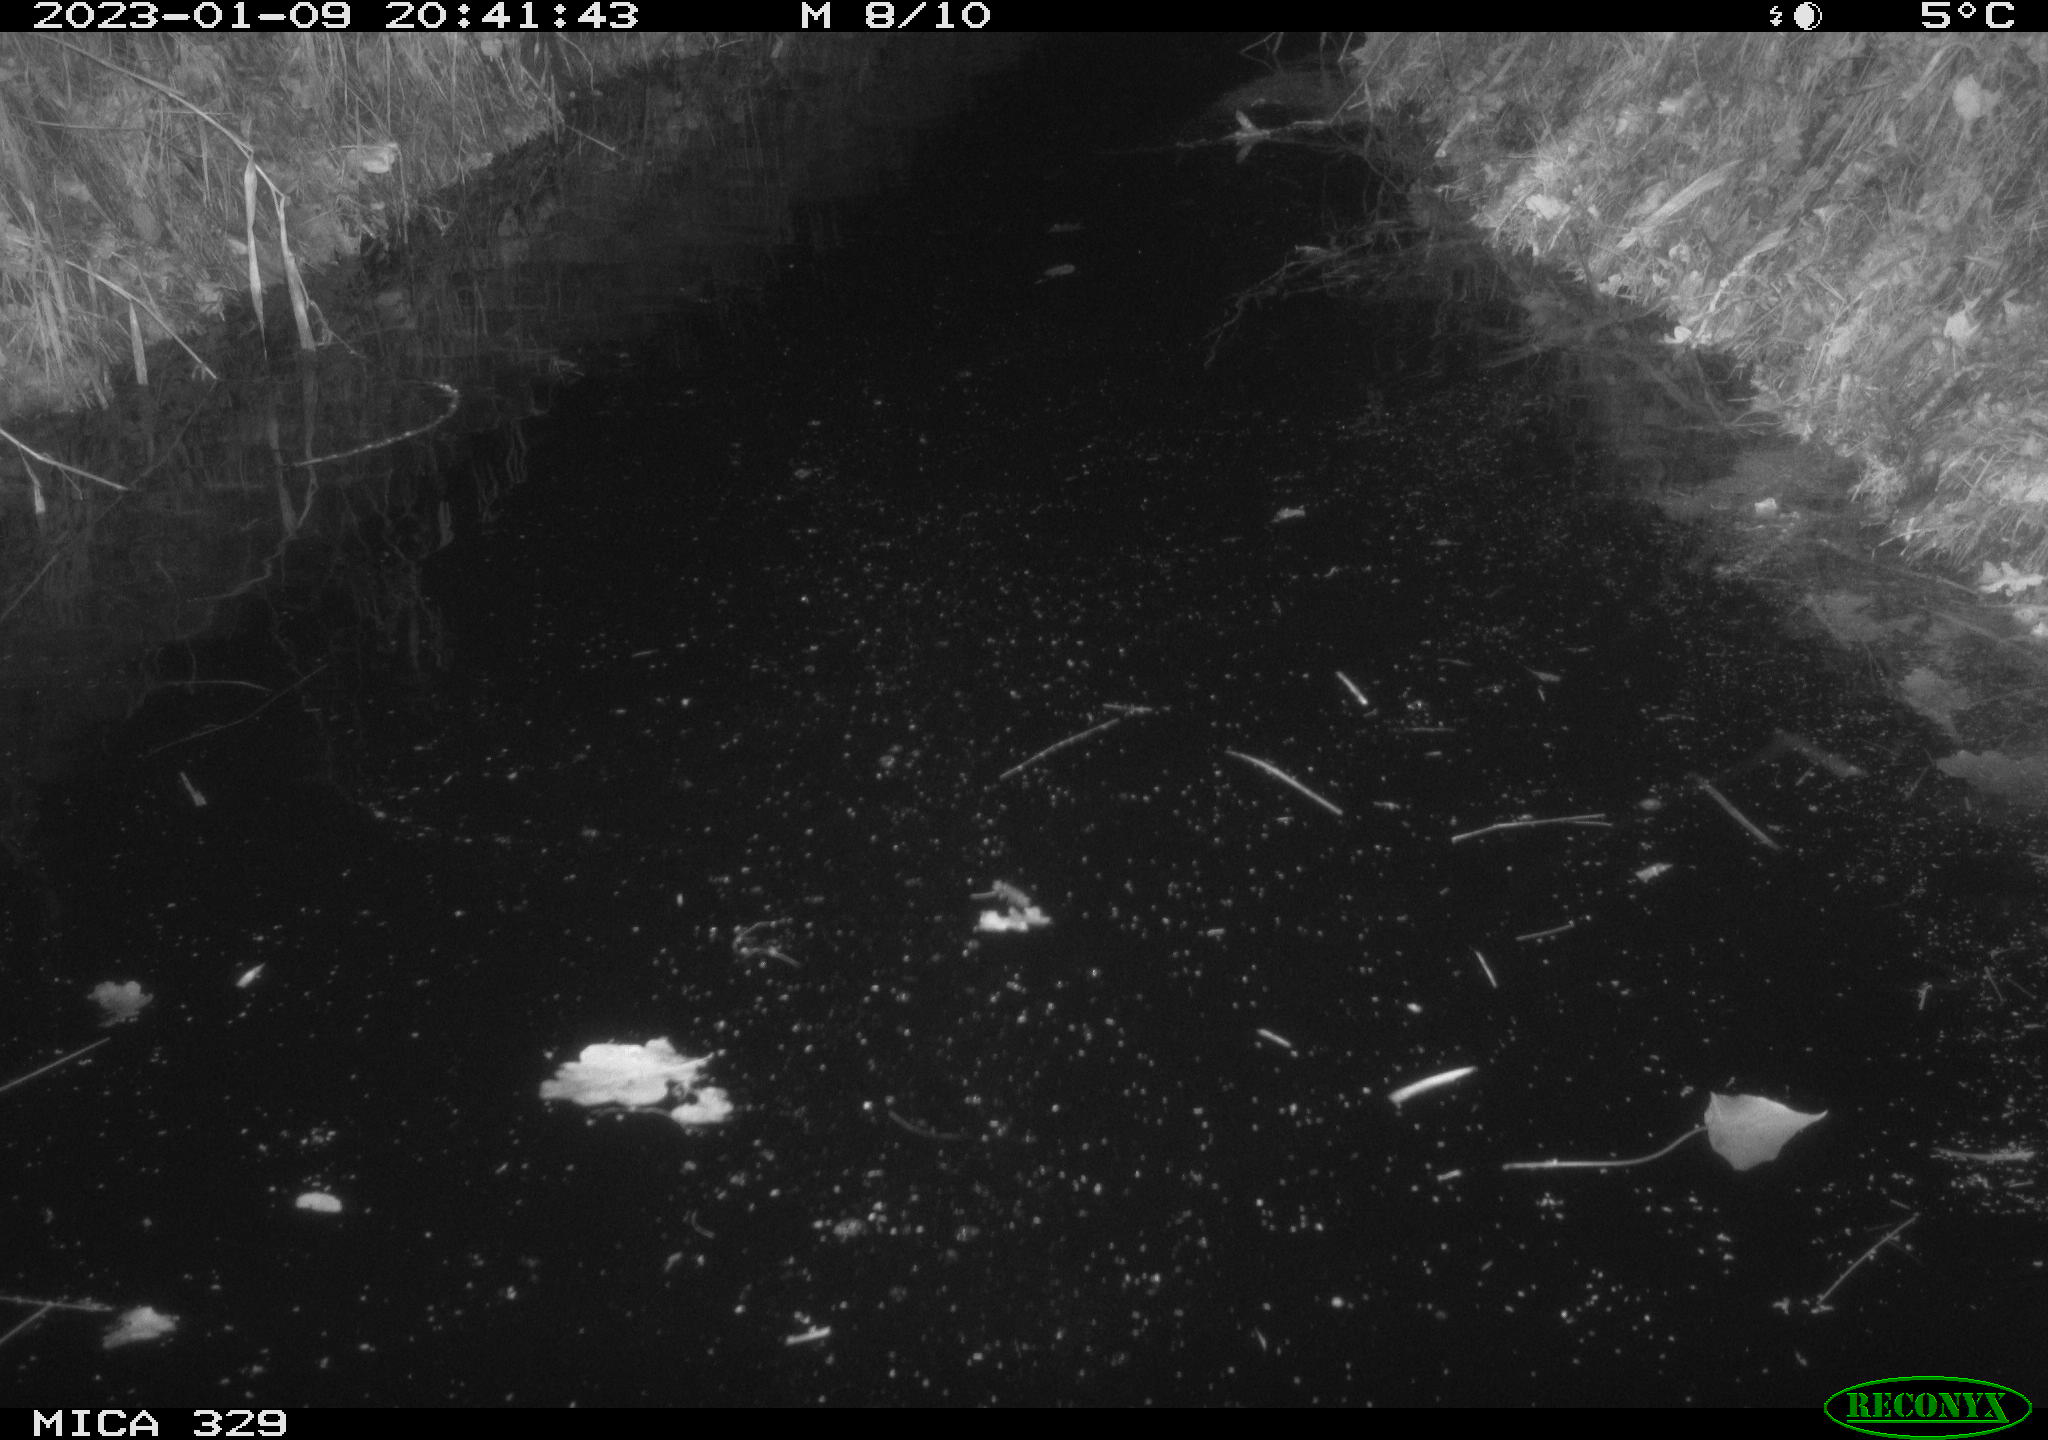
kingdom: Animalia
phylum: Chordata
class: Mammalia
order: Rodentia
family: Cricetidae
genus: Ondatra
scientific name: Ondatra zibethicus
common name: Muskrat
